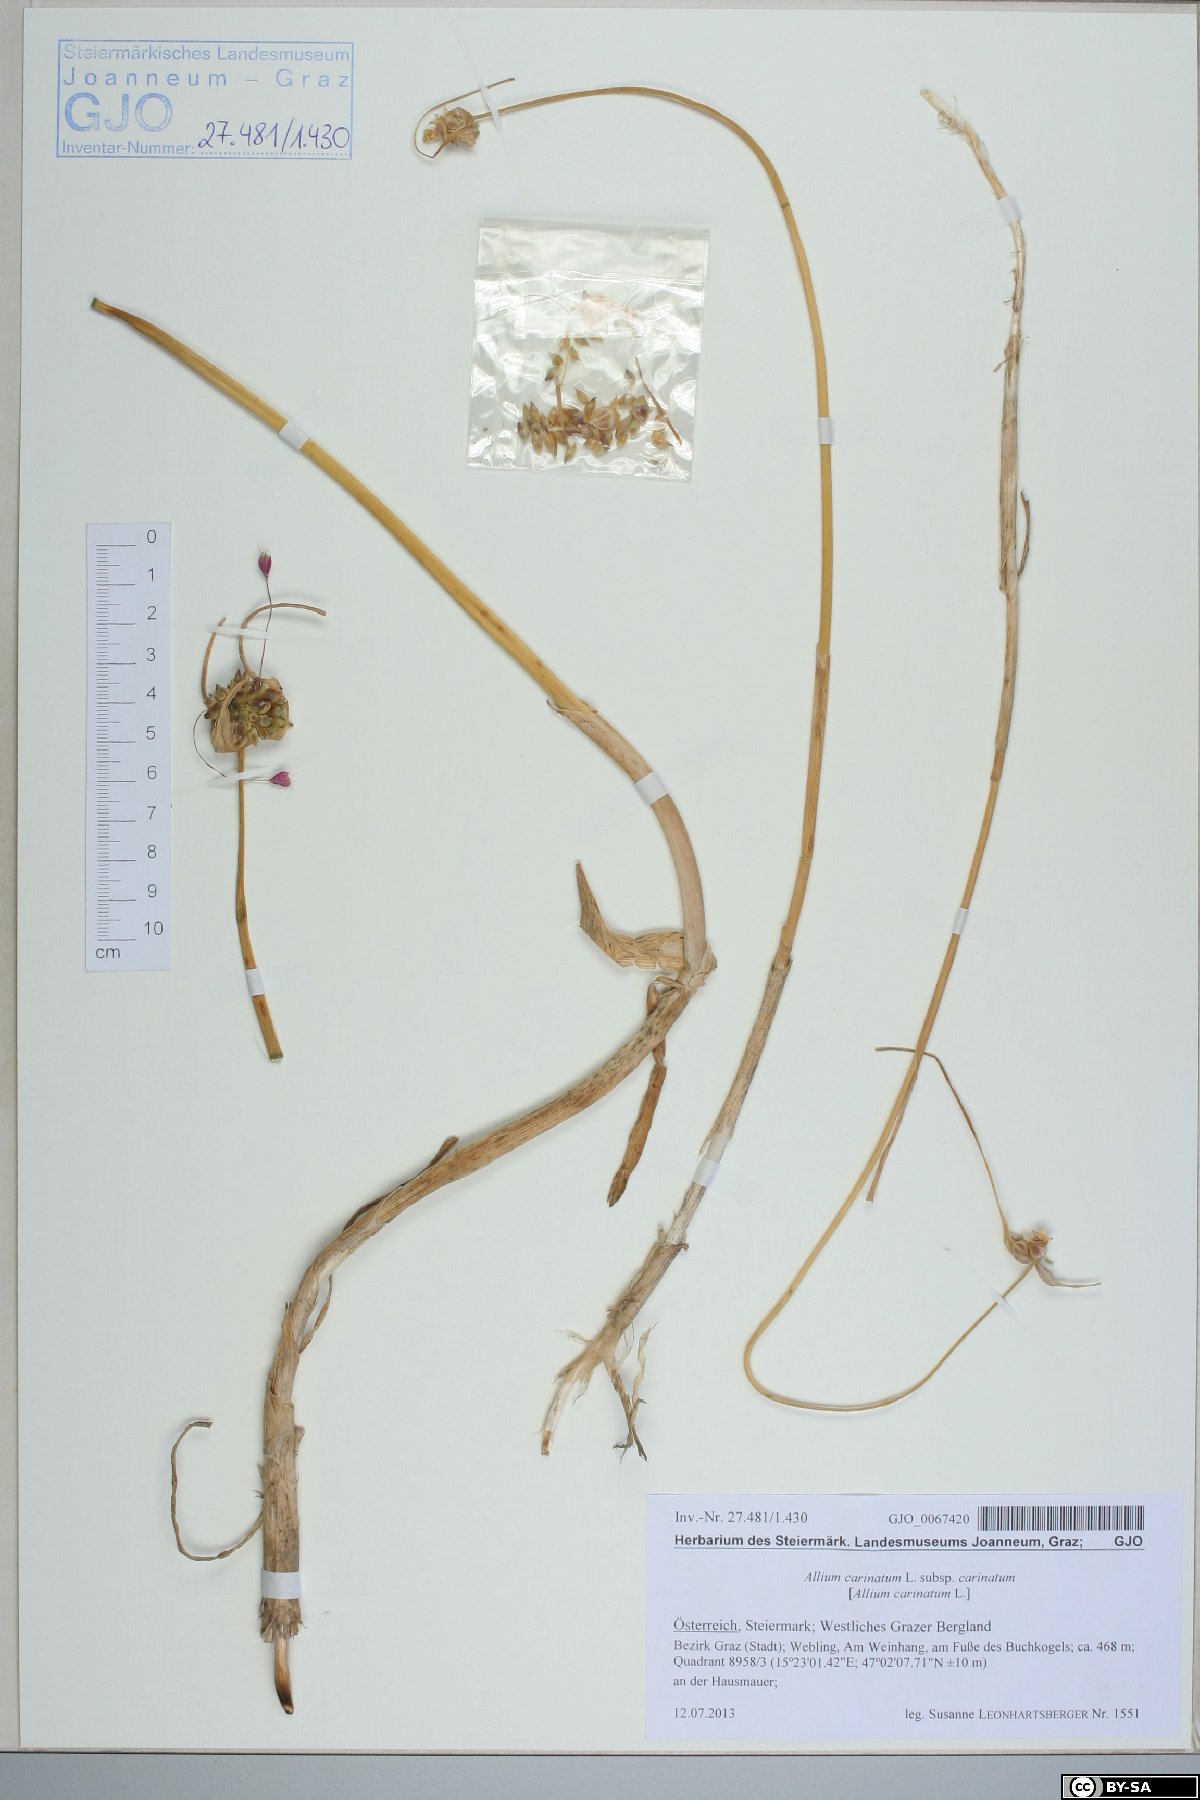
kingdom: Plantae
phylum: Tracheophyta
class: Liliopsida
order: Asparagales
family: Amaryllidaceae
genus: Allium
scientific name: Allium carinatum
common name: Keeled garlic
